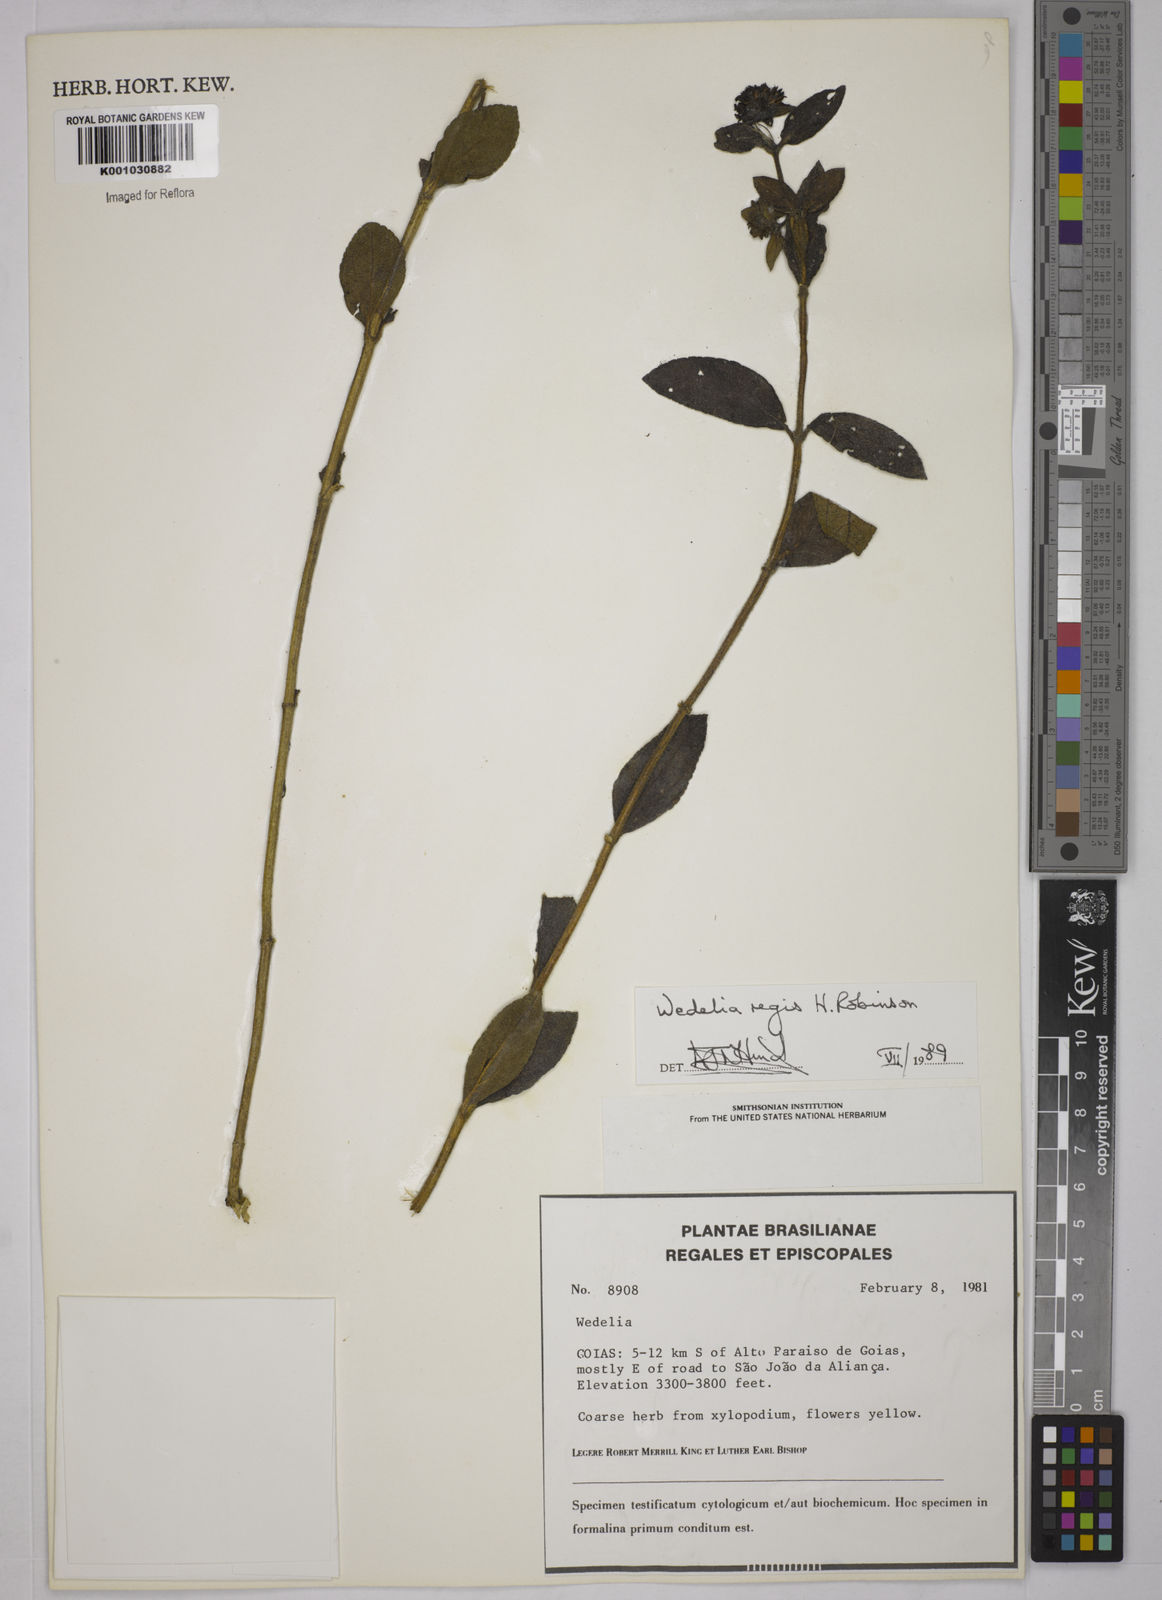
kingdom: Plantae
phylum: Tracheophyta
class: Magnoliopsida
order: Asterales
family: Asteraceae
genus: Wedelia
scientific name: Wedelia regis
